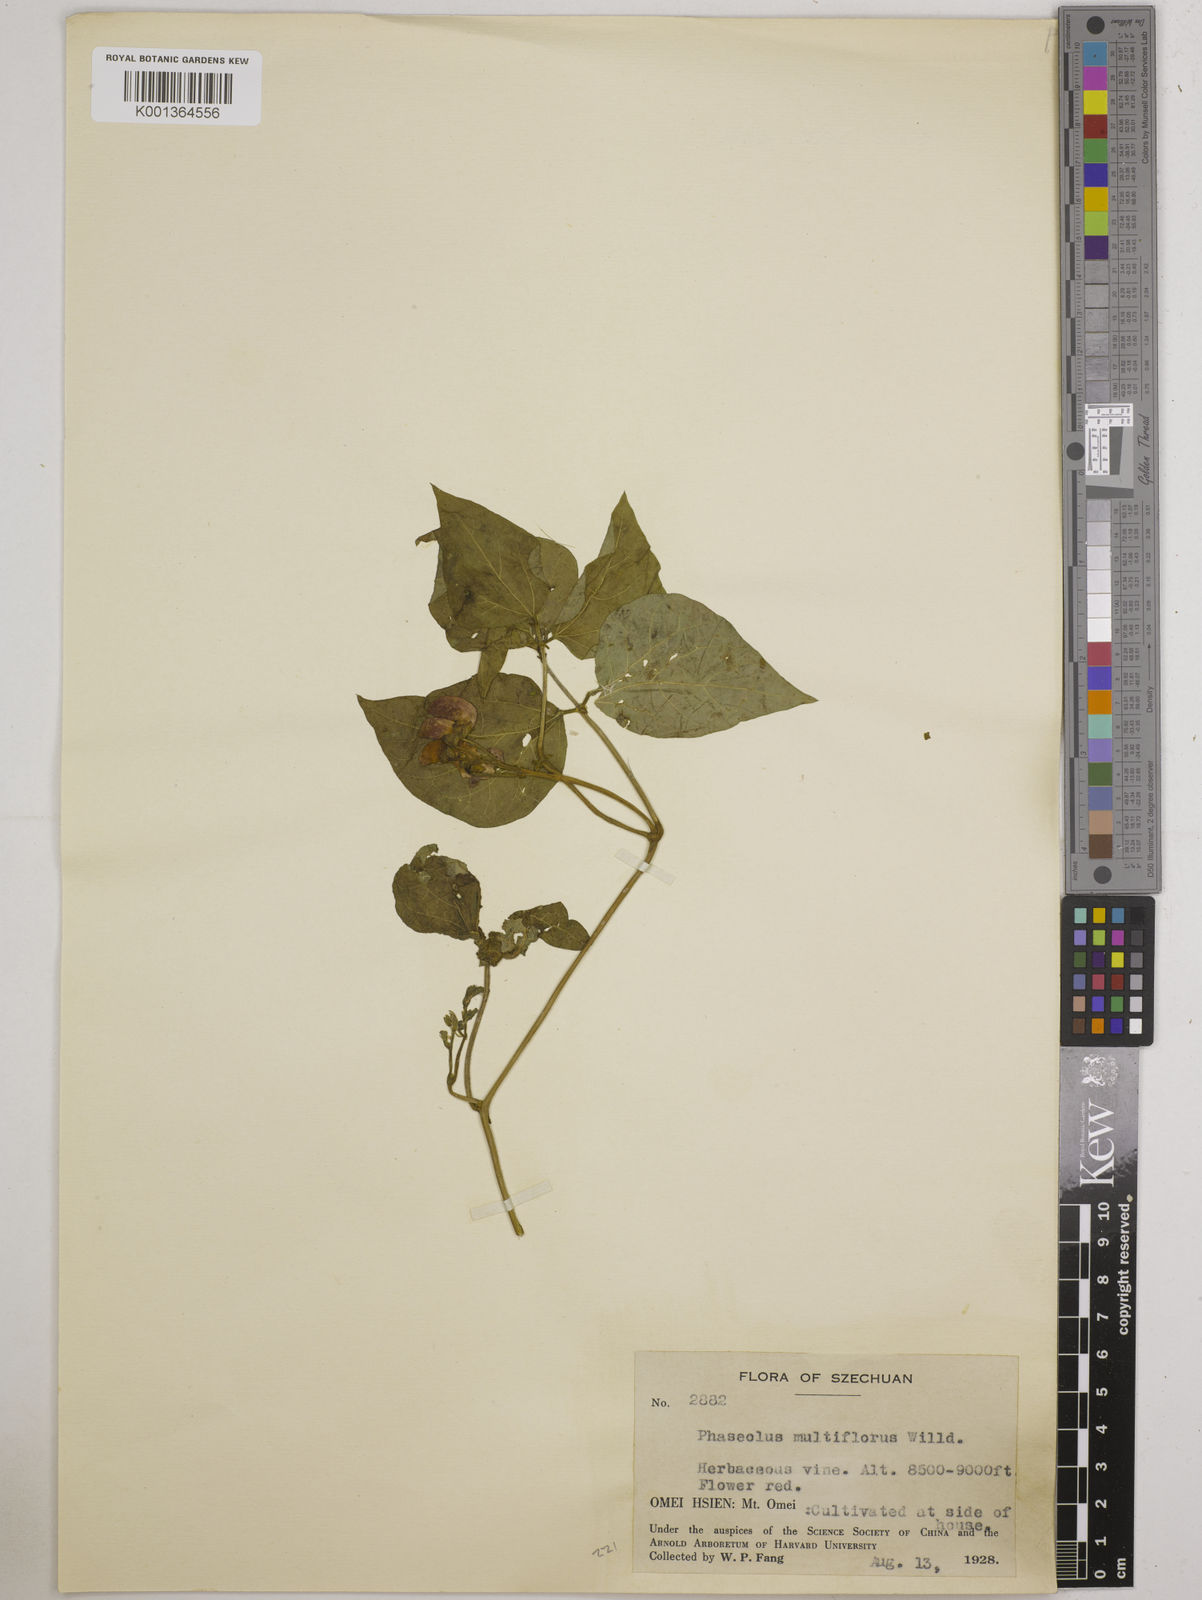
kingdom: Plantae
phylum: Tracheophyta
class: Magnoliopsida
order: Fabales
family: Fabaceae
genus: Phaseolus
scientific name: Phaseolus coccineus
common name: Runner bean
